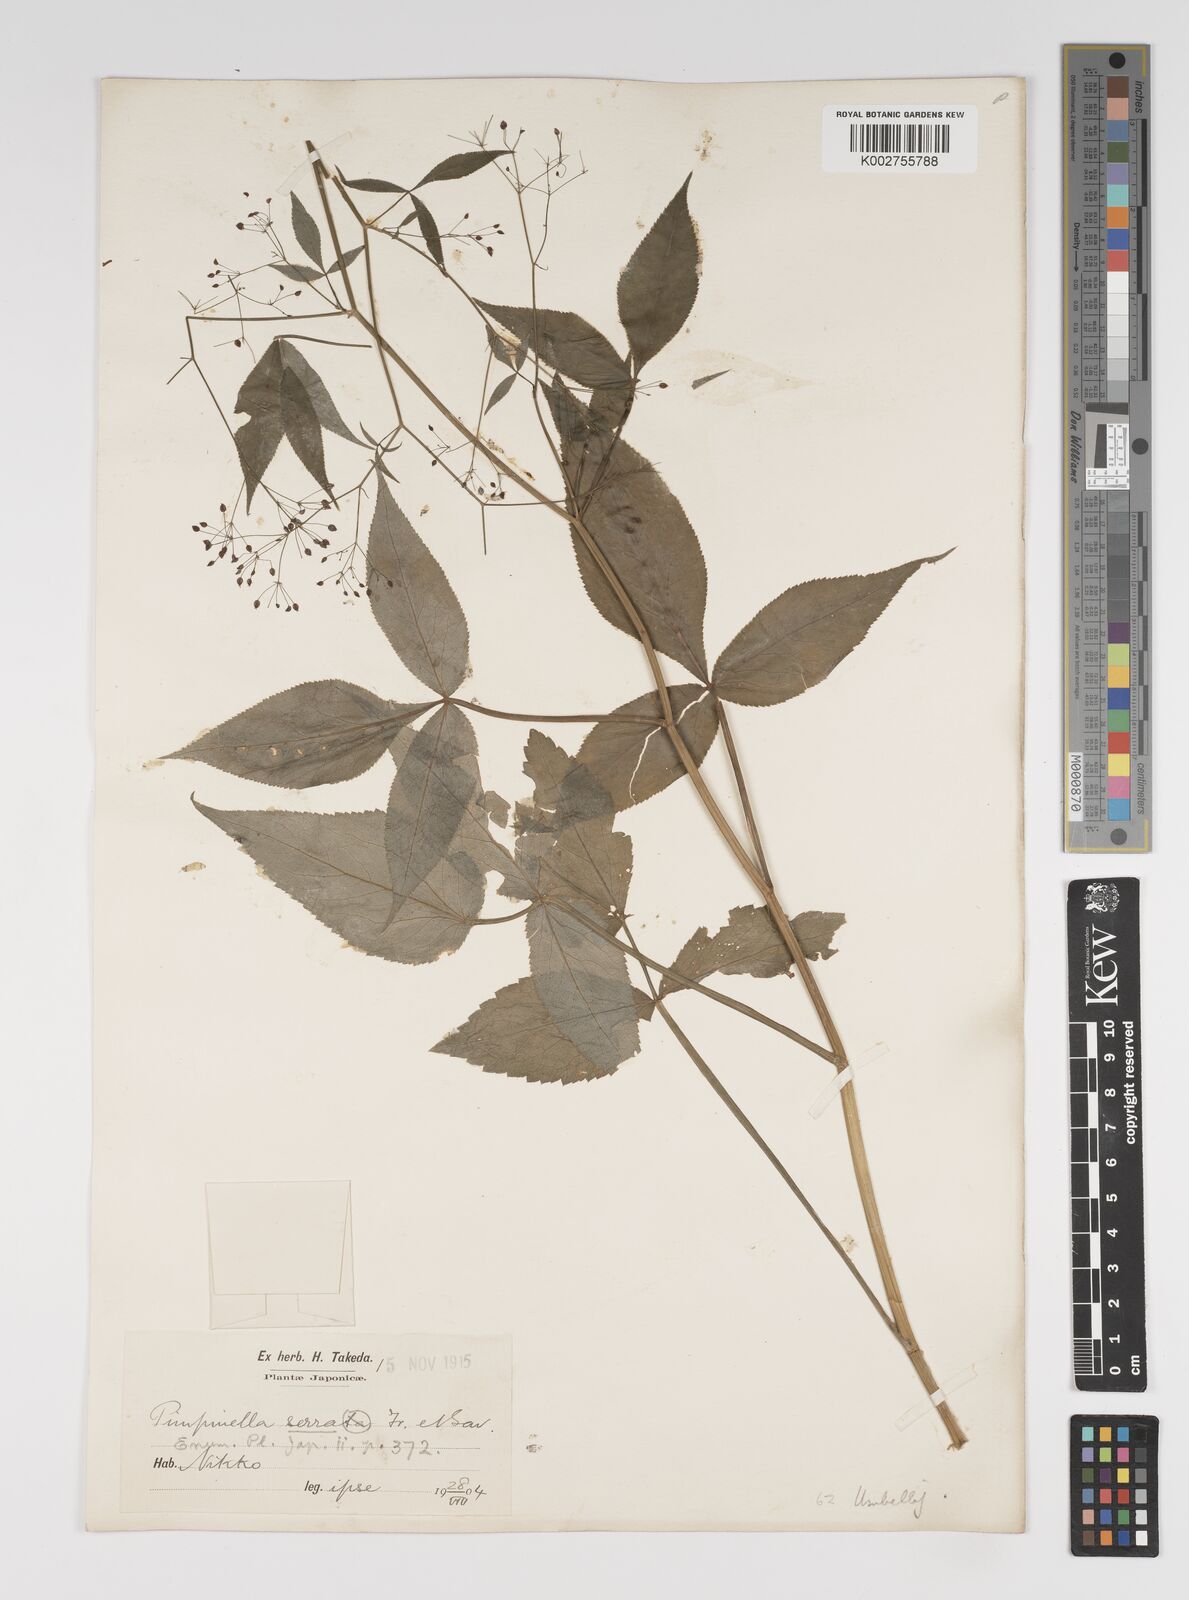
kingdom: Plantae
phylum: Tracheophyta
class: Magnoliopsida
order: Apiales
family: Apiaceae
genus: Sium
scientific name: Sium serra
